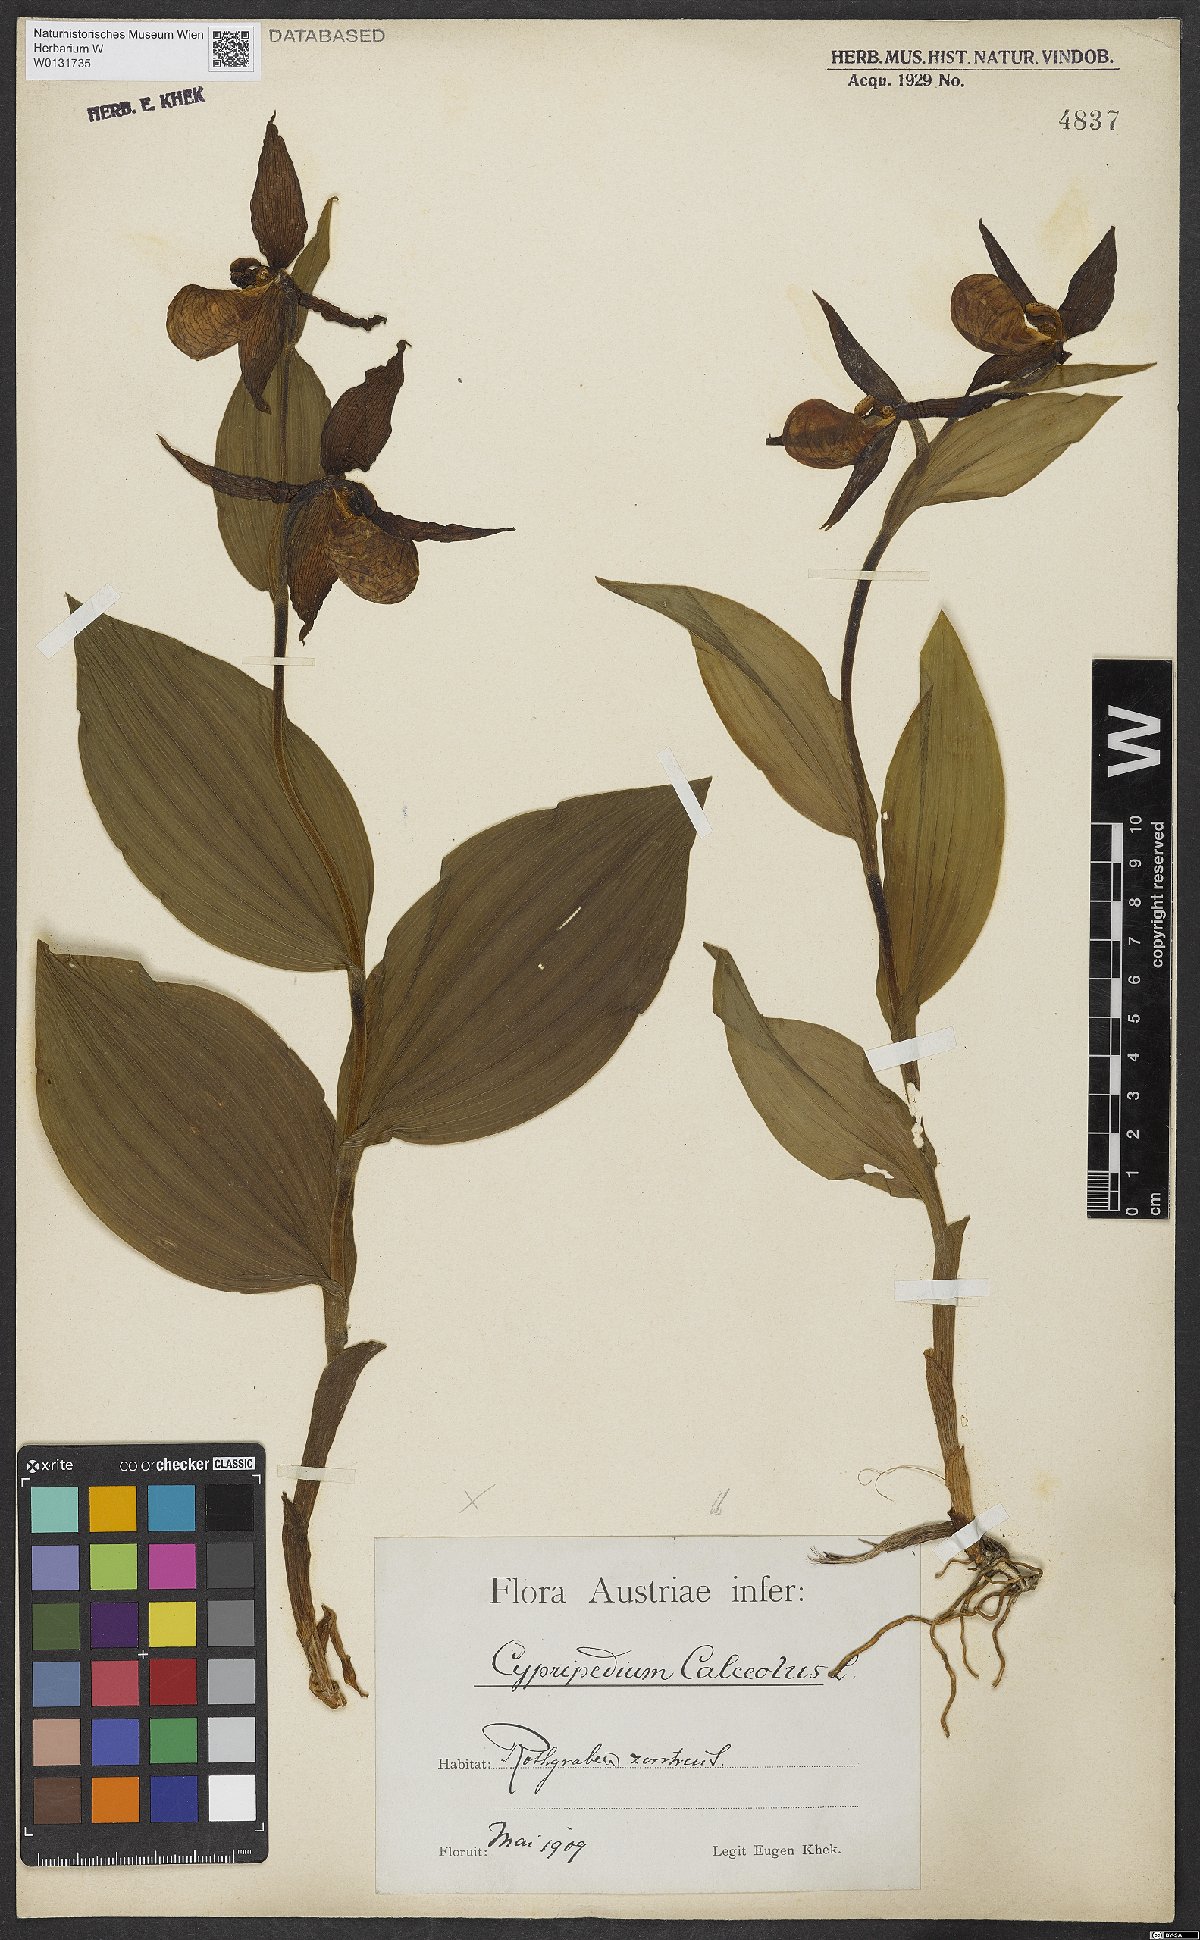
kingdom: Plantae
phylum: Tracheophyta
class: Liliopsida
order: Asparagales
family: Orchidaceae
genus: Cypripedium
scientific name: Cypripedium calceolus
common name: Lady's-slipper
